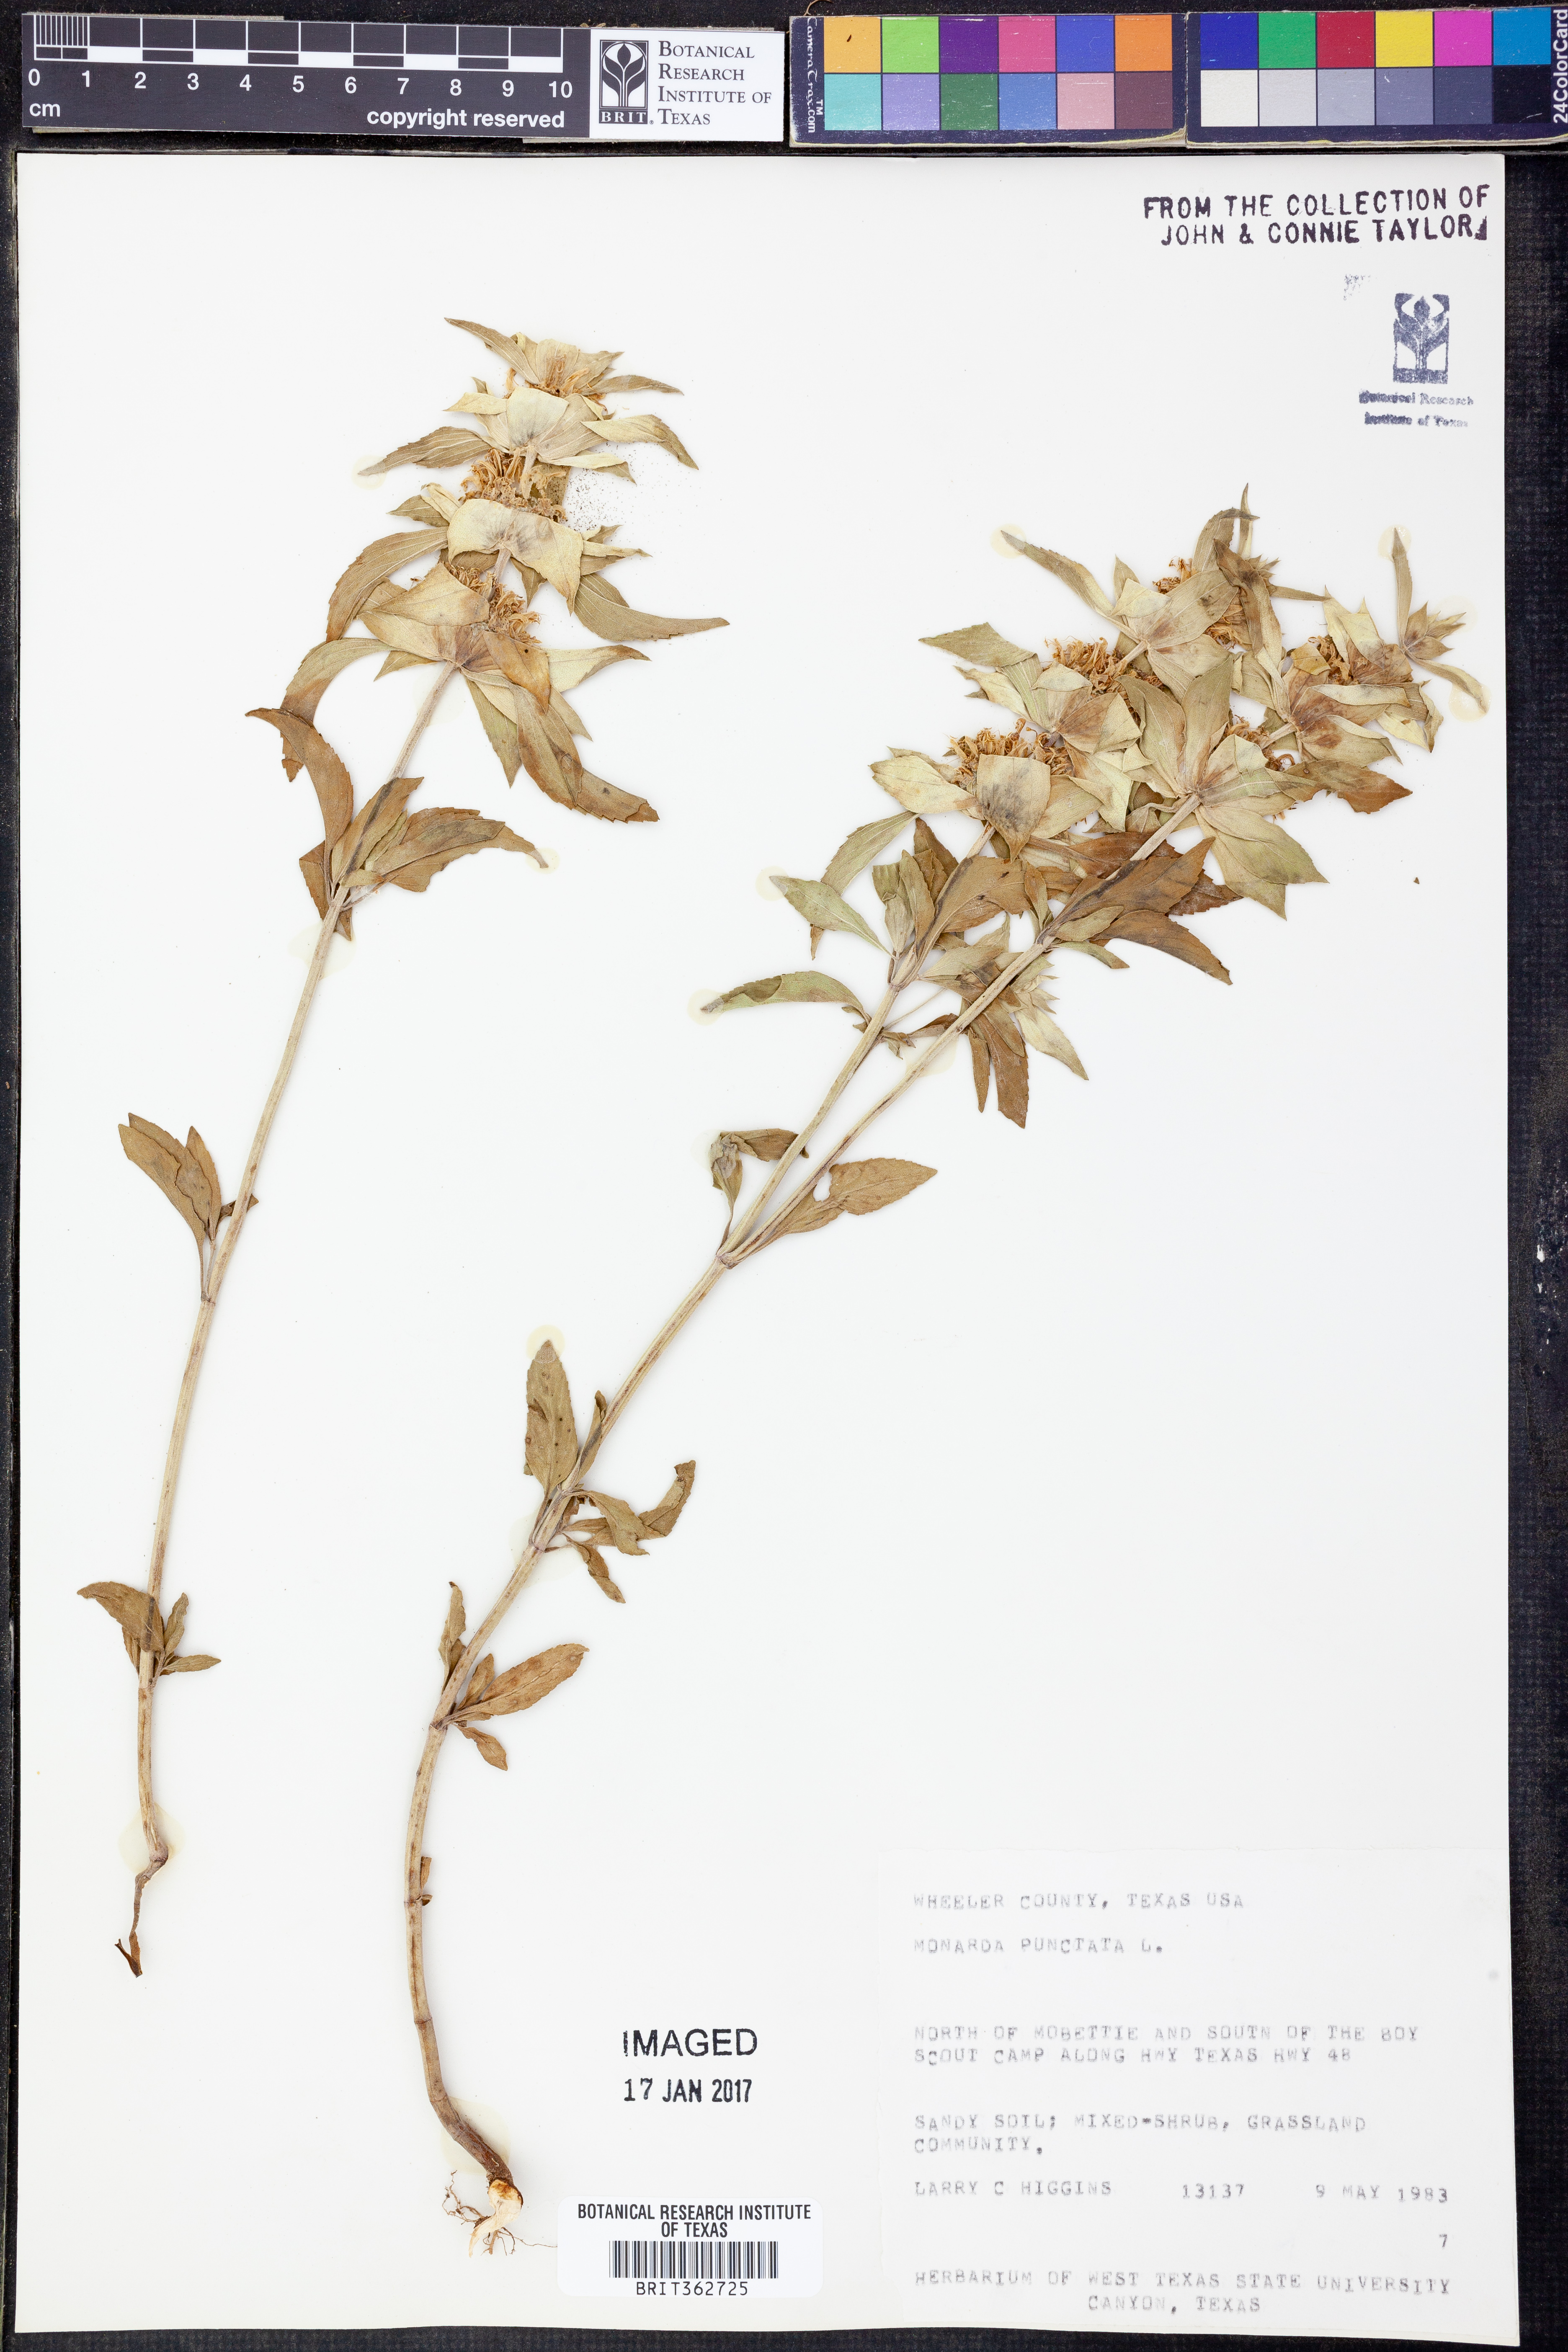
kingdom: Plantae
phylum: Tracheophyta
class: Magnoliopsida
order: Lamiales
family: Lamiaceae
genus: Monarda
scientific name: Monarda punctata
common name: Dotted monarda
